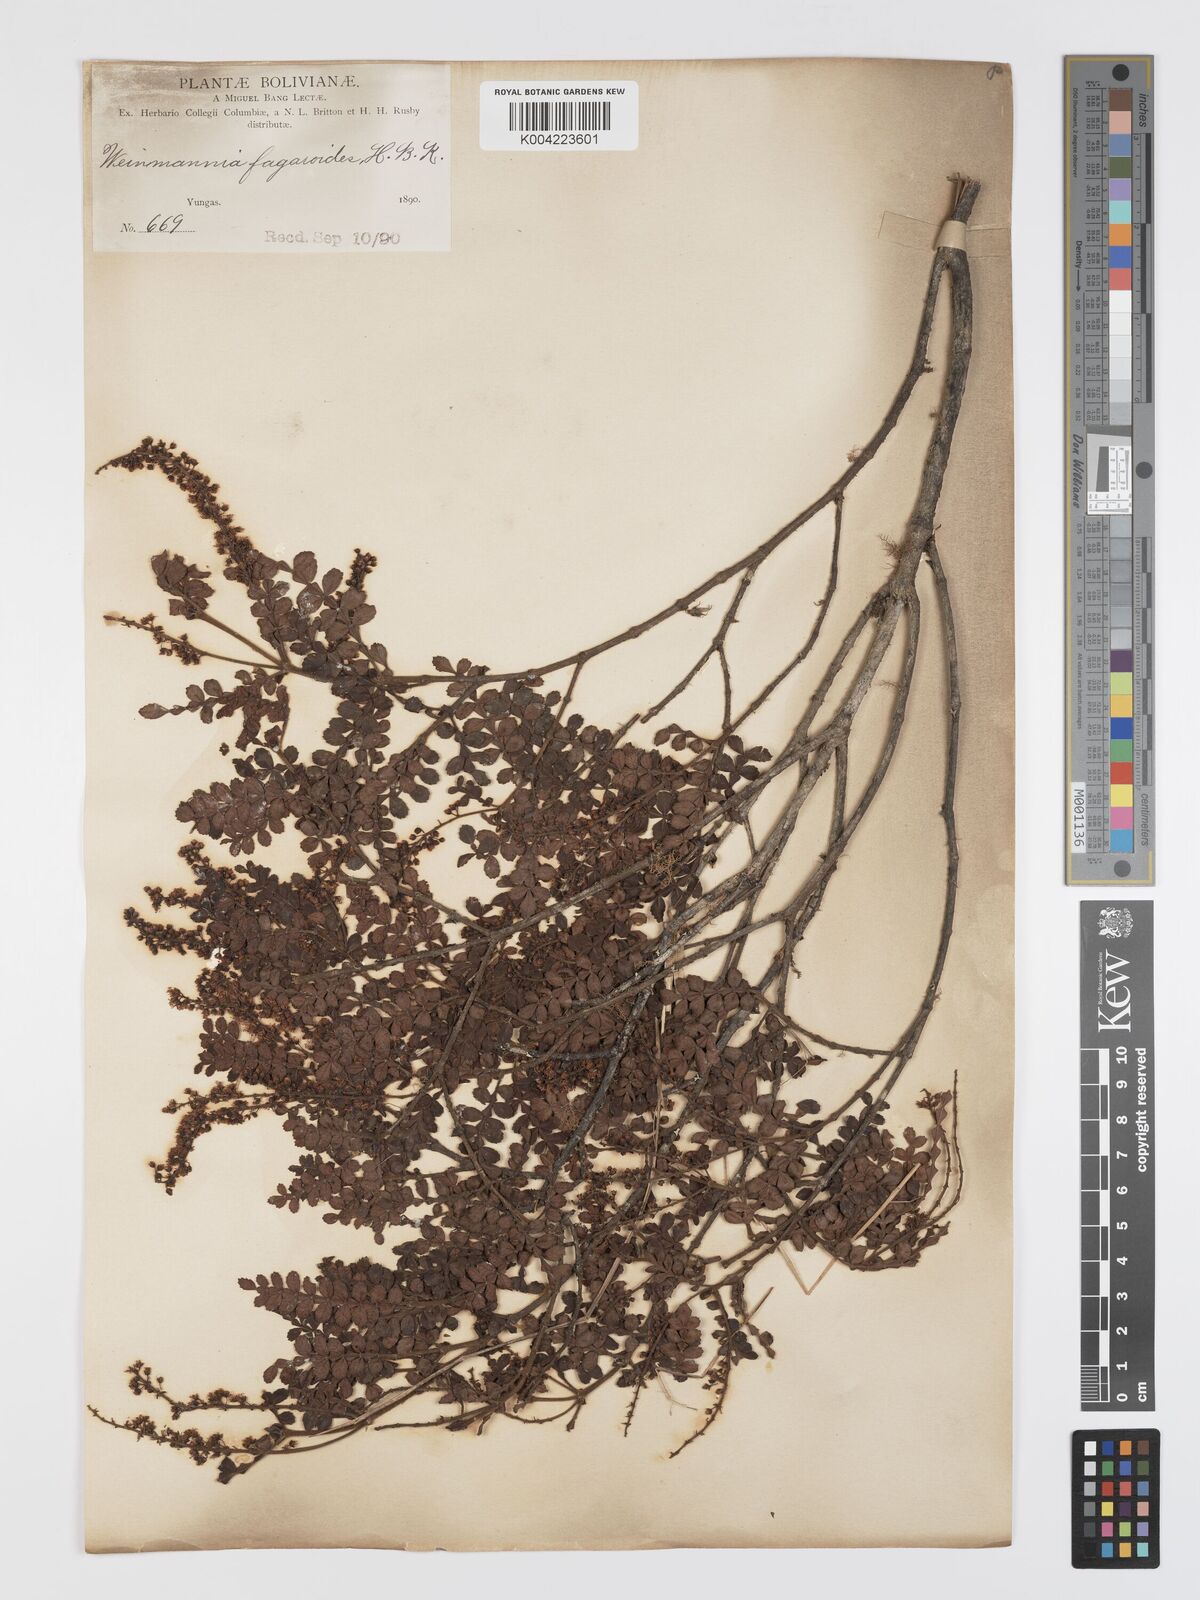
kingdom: Plantae
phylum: Tracheophyta
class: Magnoliopsida
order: Oxalidales
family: Cunoniaceae
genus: Weinmannia
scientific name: Weinmannia fagaroides
